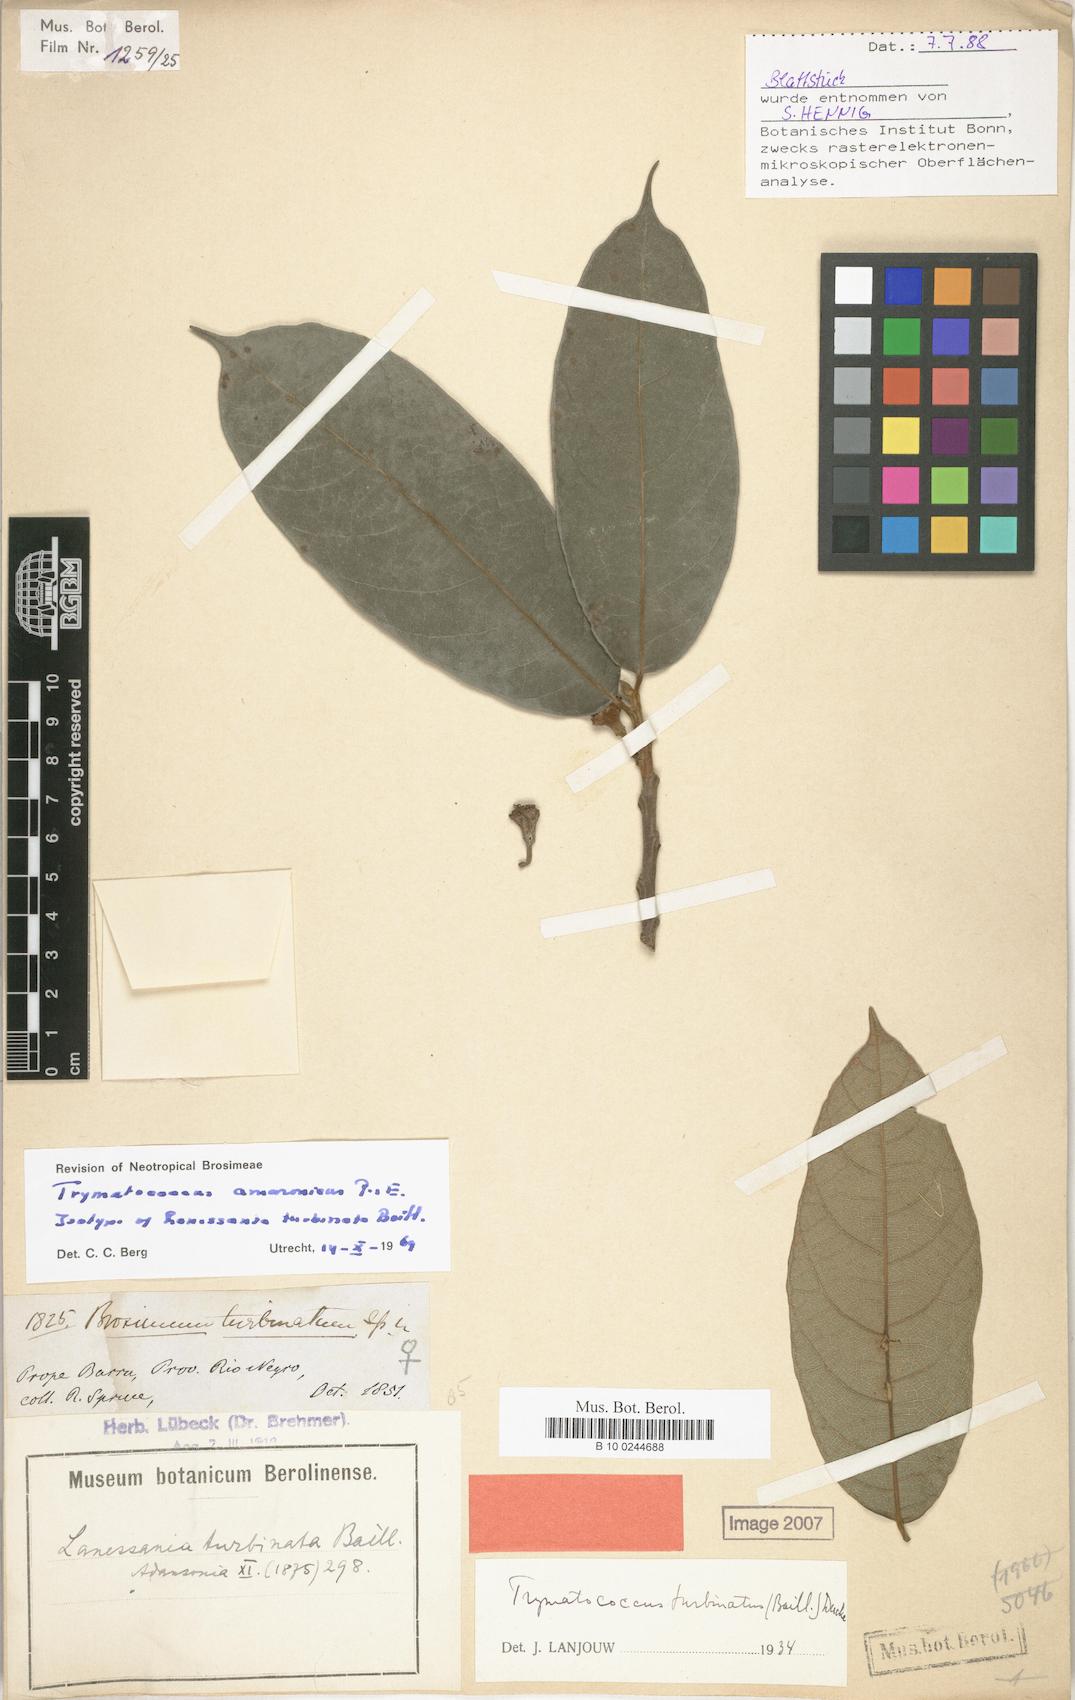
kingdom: Plantae
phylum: Tracheophyta
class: Magnoliopsida
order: Rosales
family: Moraceae
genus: Brosimum
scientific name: Brosimum amazonicum
